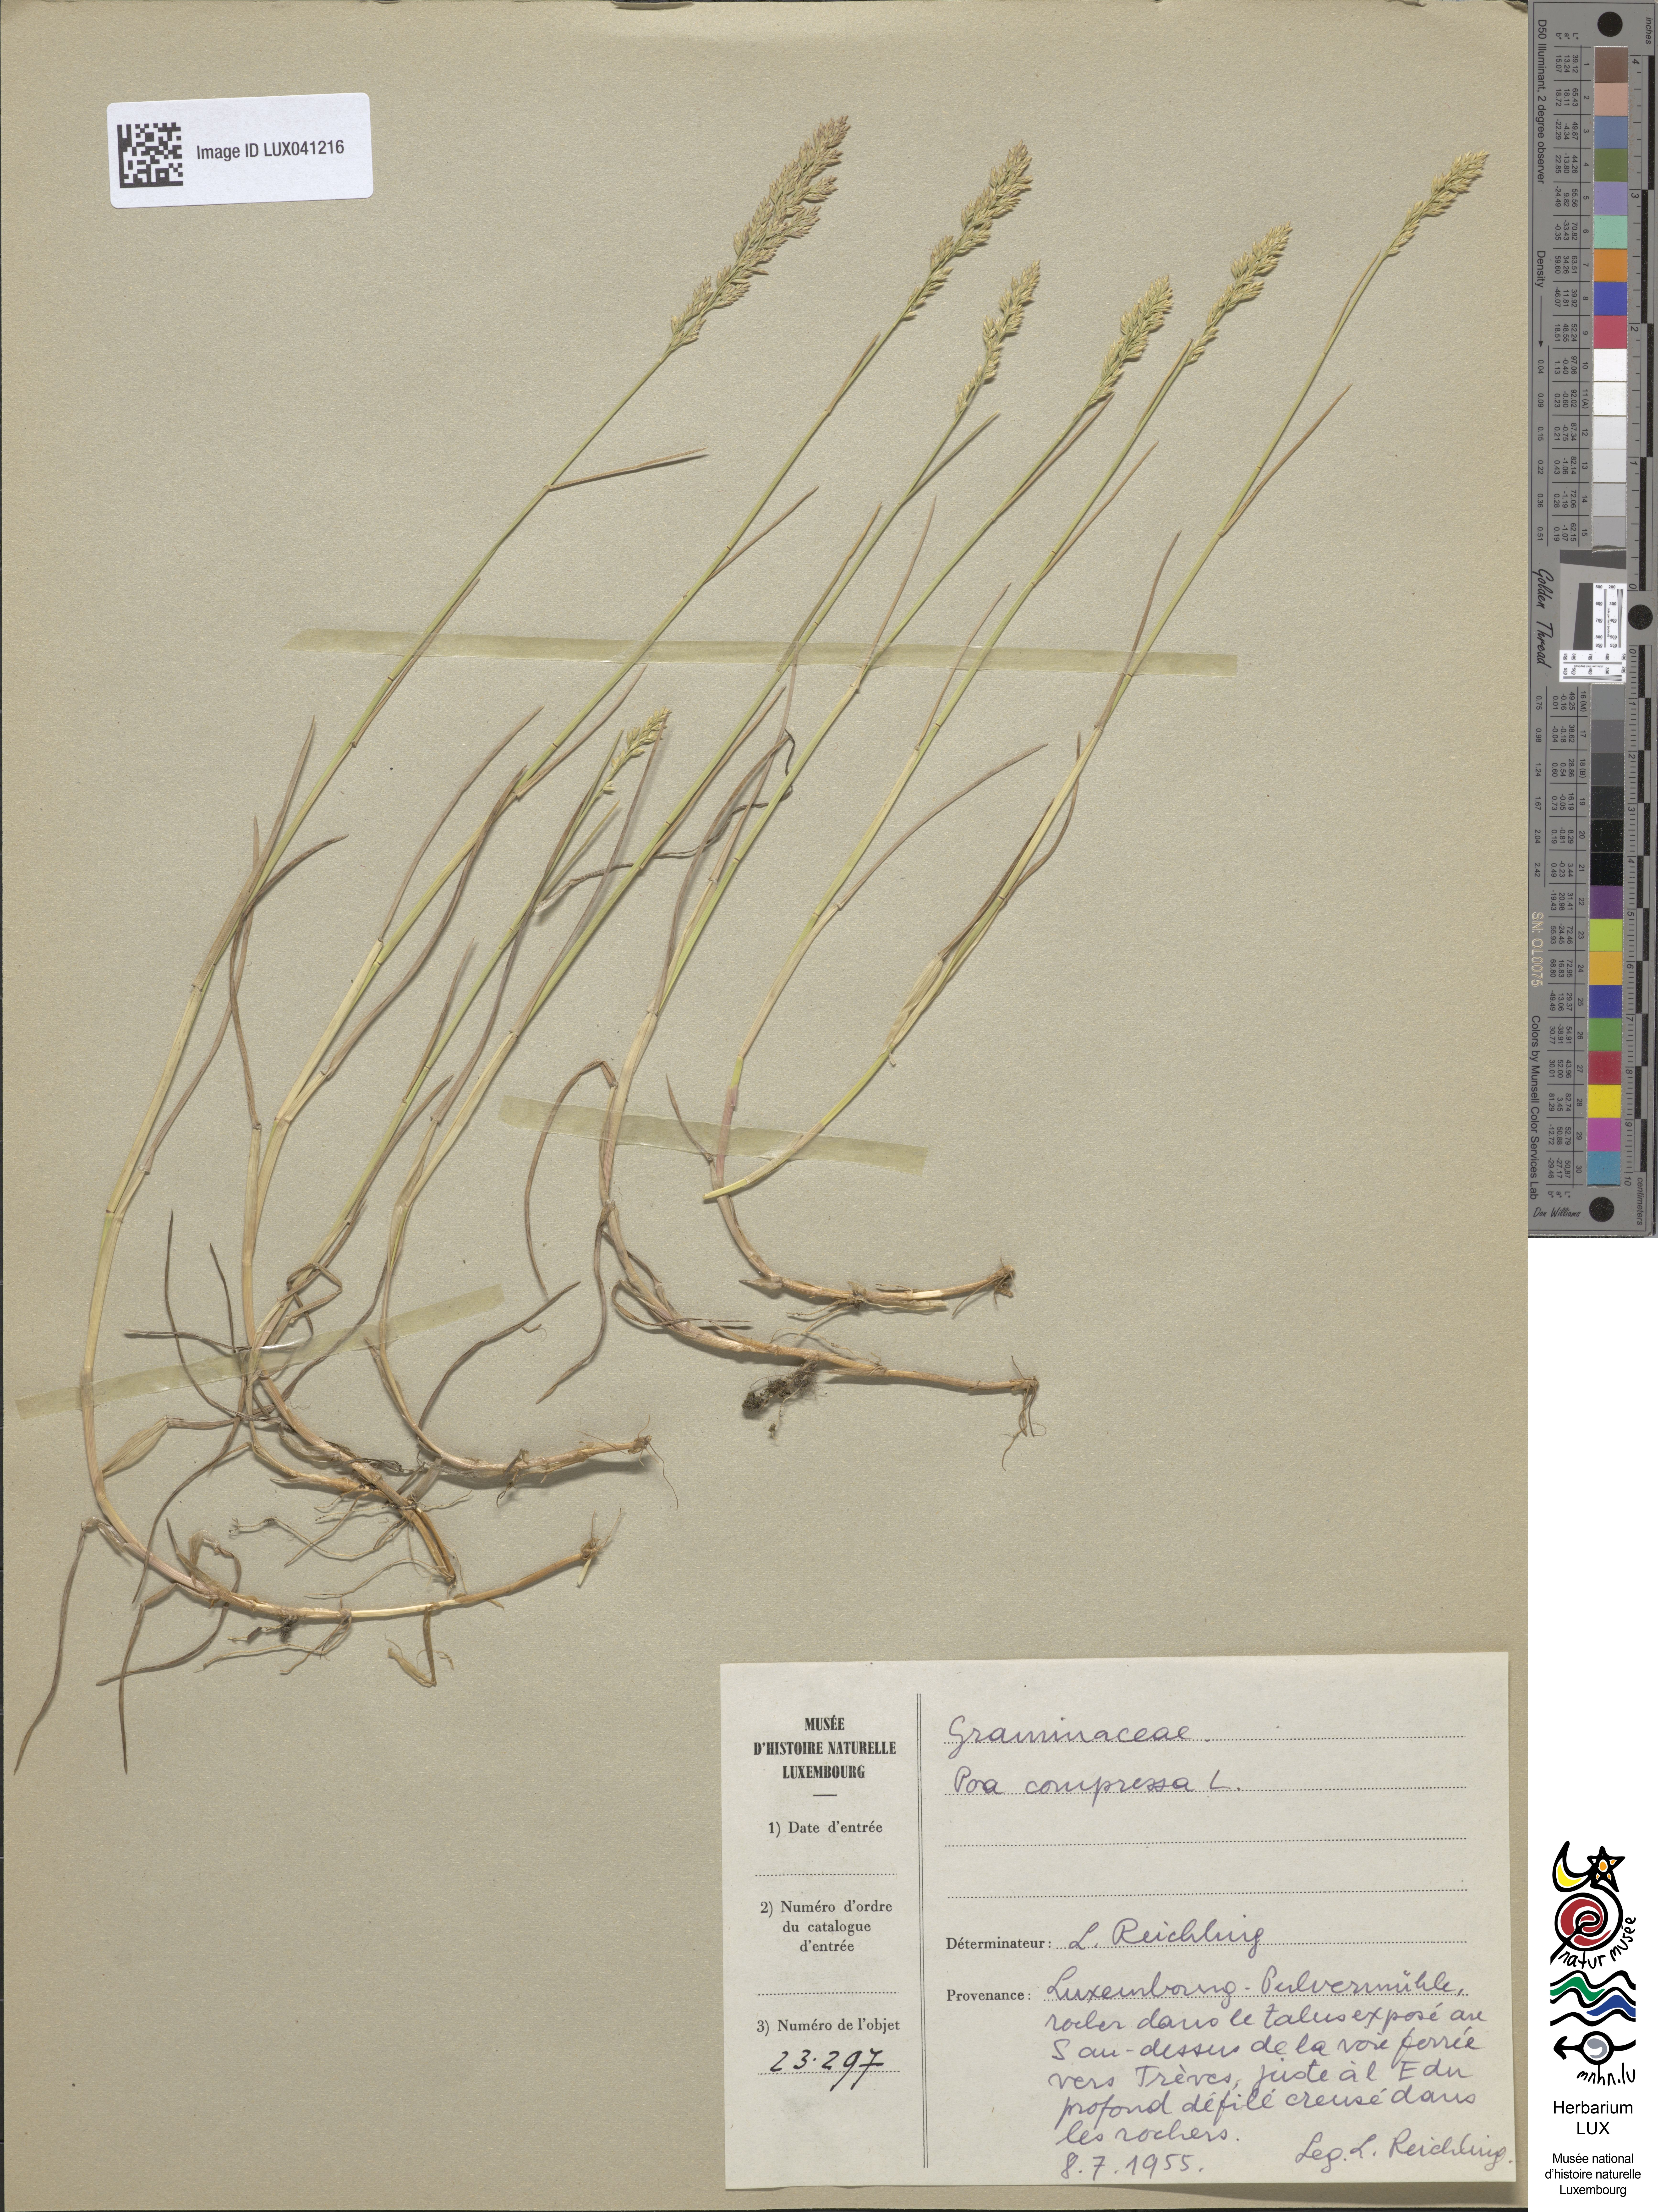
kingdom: Plantae
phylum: Tracheophyta
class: Liliopsida
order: Poales
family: Poaceae
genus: Poa
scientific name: Poa compressa
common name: Canada bluegrass
